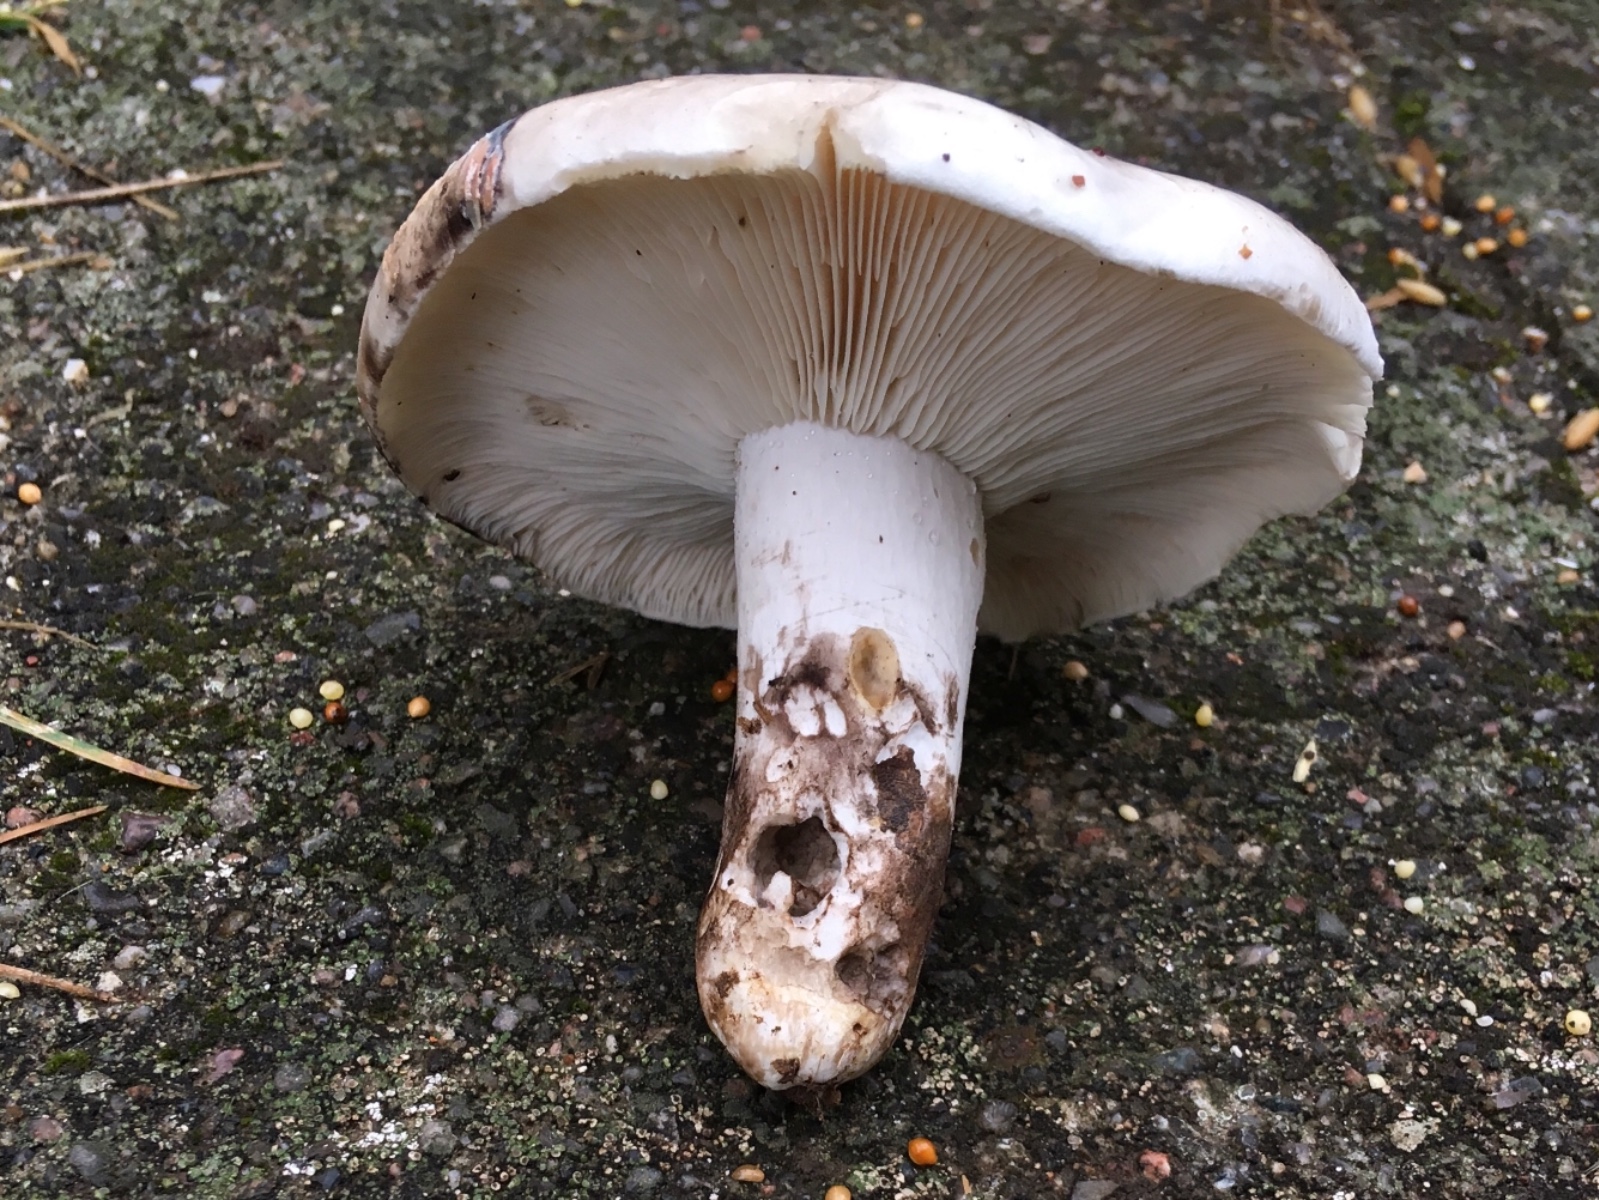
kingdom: Fungi
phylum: Basidiomycota
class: Agaricomycetes
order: Russulales
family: Russulaceae
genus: Russula
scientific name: Russula anthracina
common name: kul-skørhat
